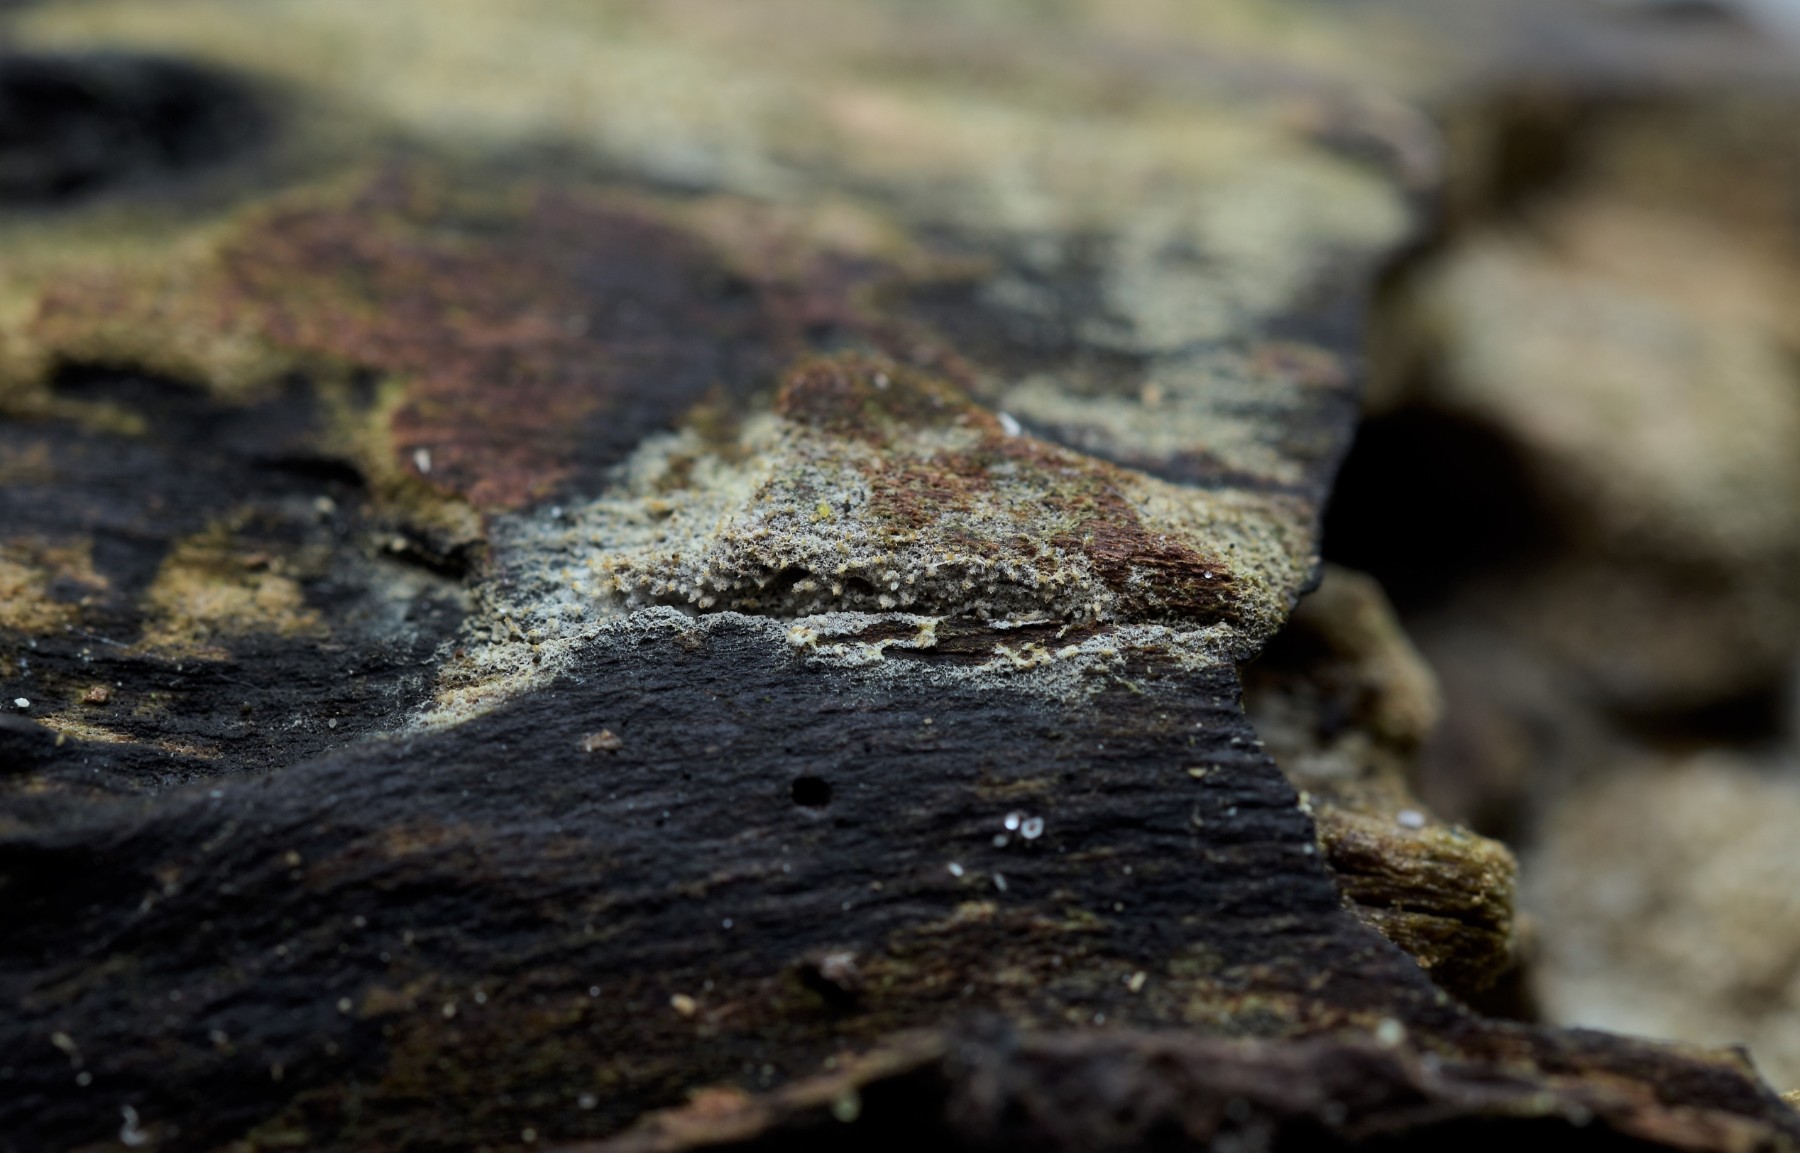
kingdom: Fungi
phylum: Basidiomycota
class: Agaricomycetes
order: Hymenochaetales
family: Hyphodontiaceae
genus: Hyphodontia
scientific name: Hyphodontia arguta
